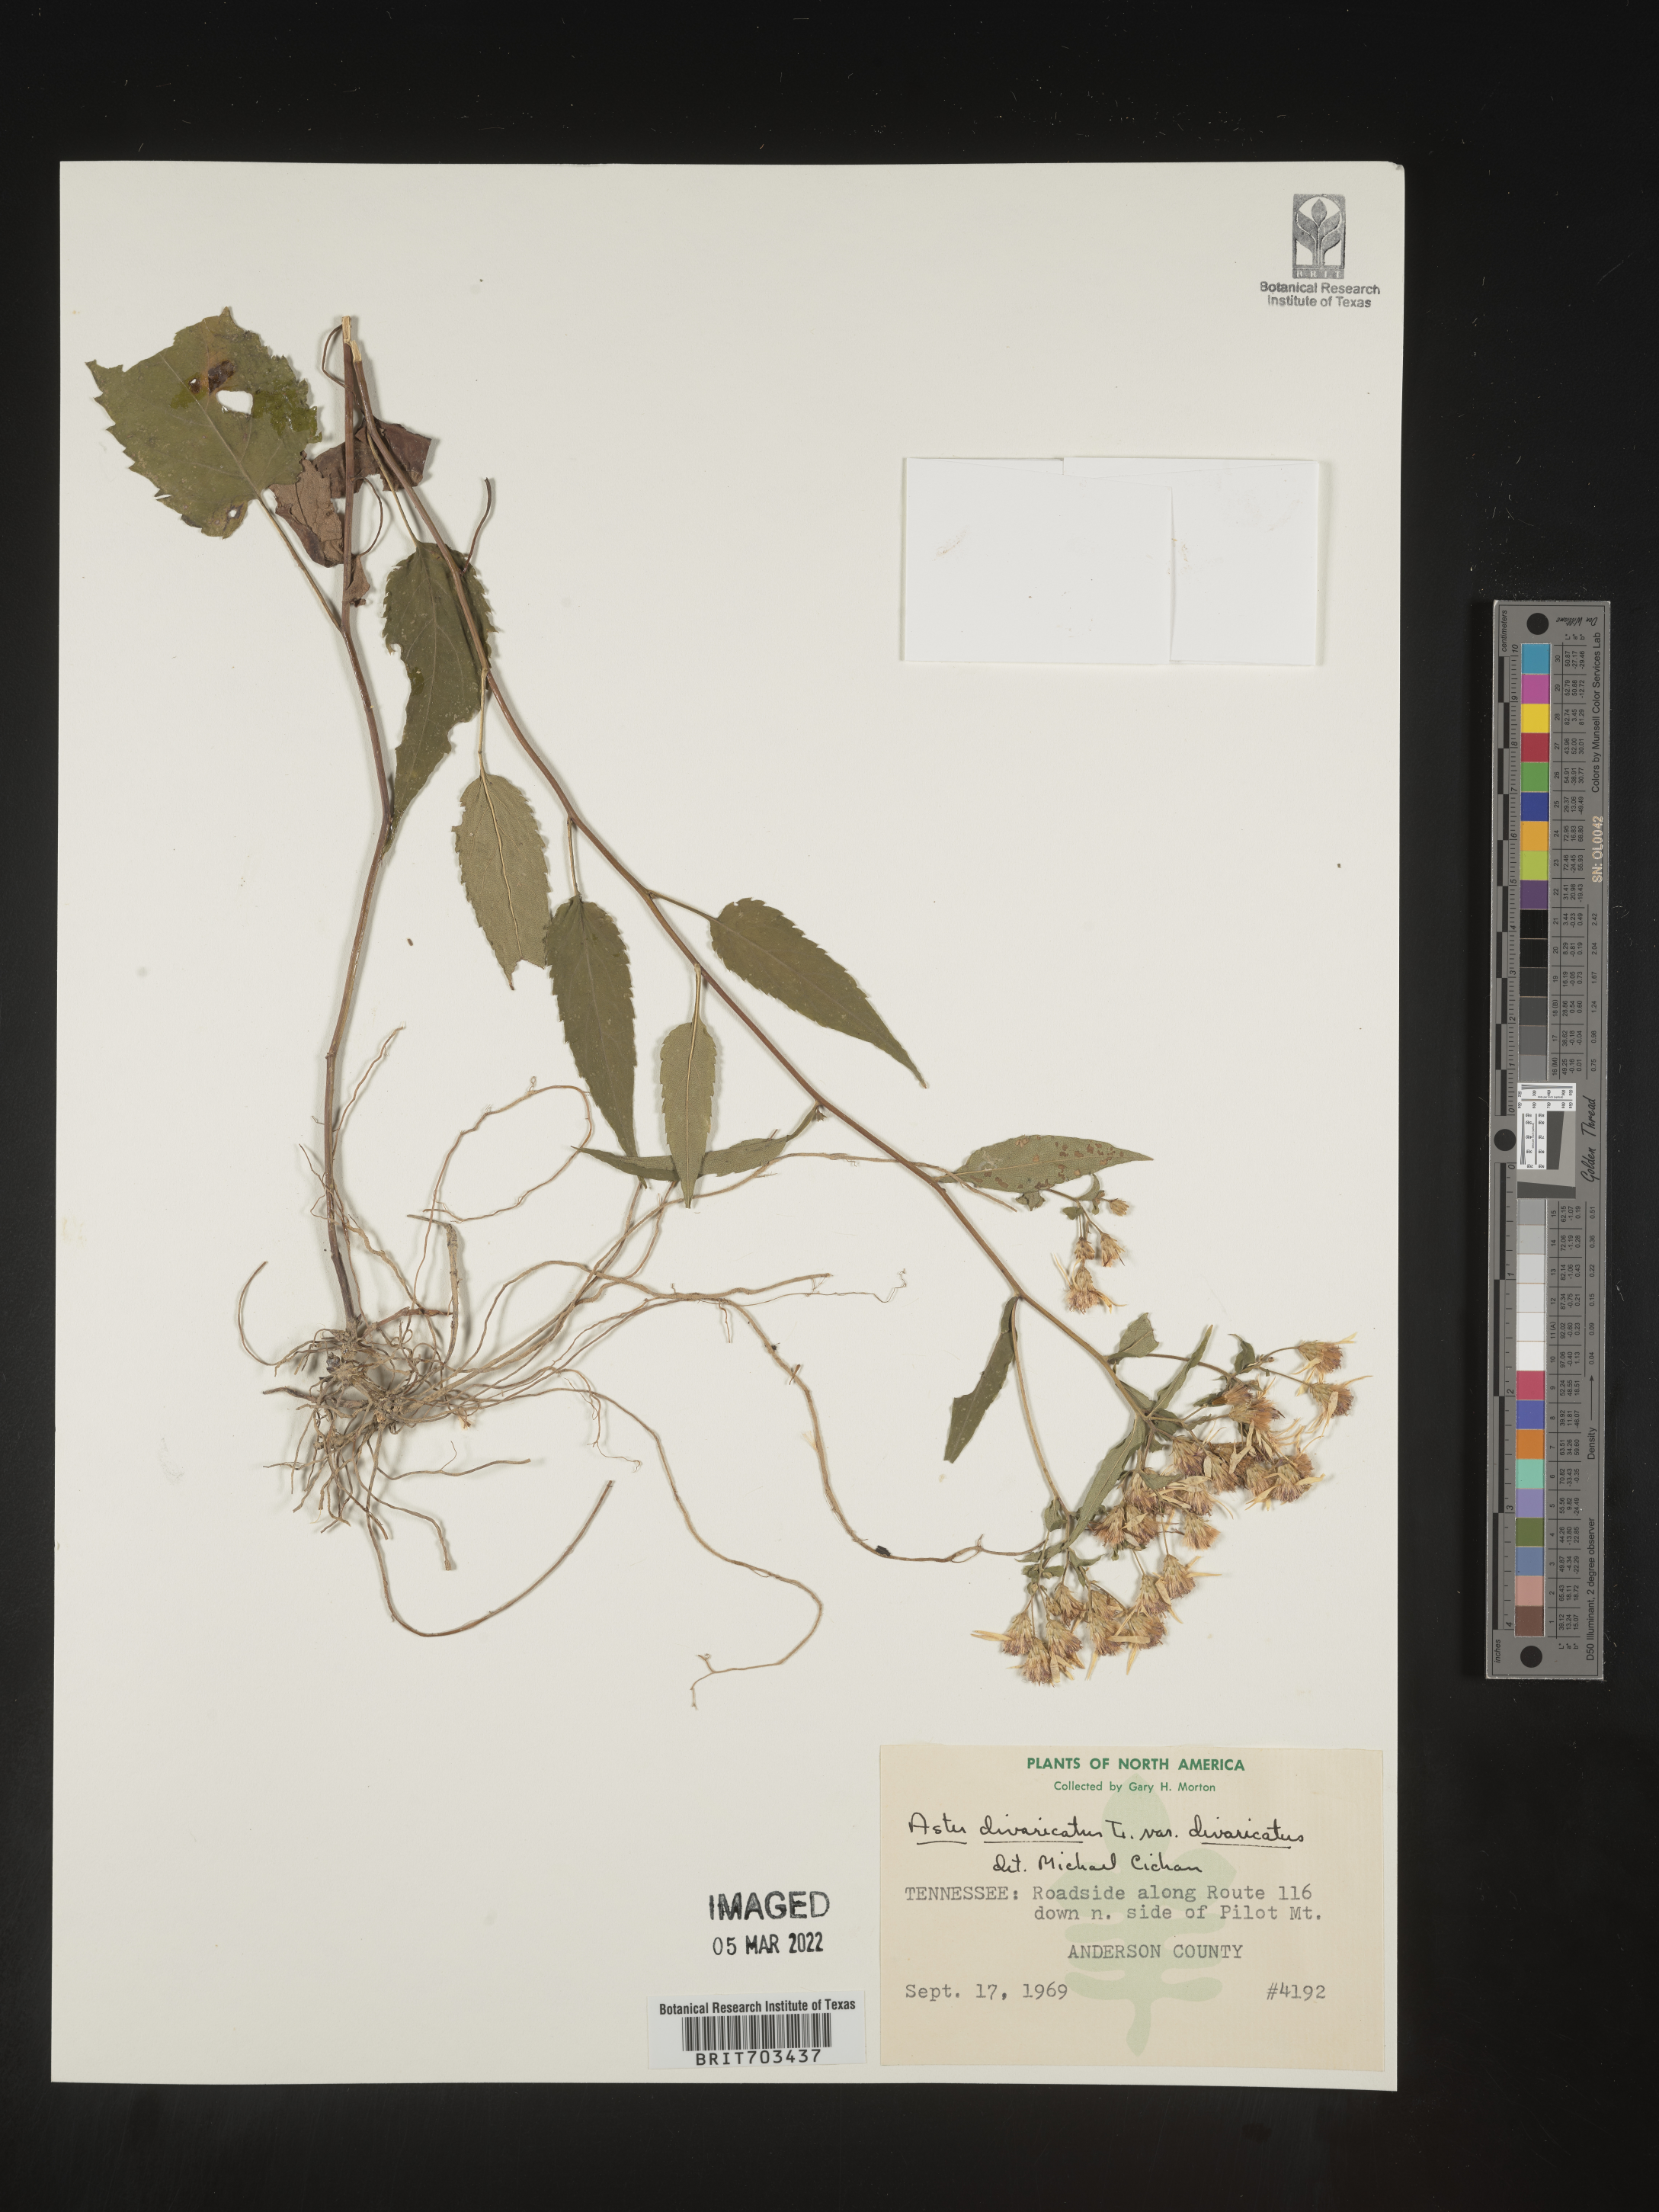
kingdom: Plantae
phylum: Tracheophyta
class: Magnoliopsida
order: Asterales
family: Asteraceae
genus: Eurybia
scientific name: Eurybia divaricata
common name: White wood aster
